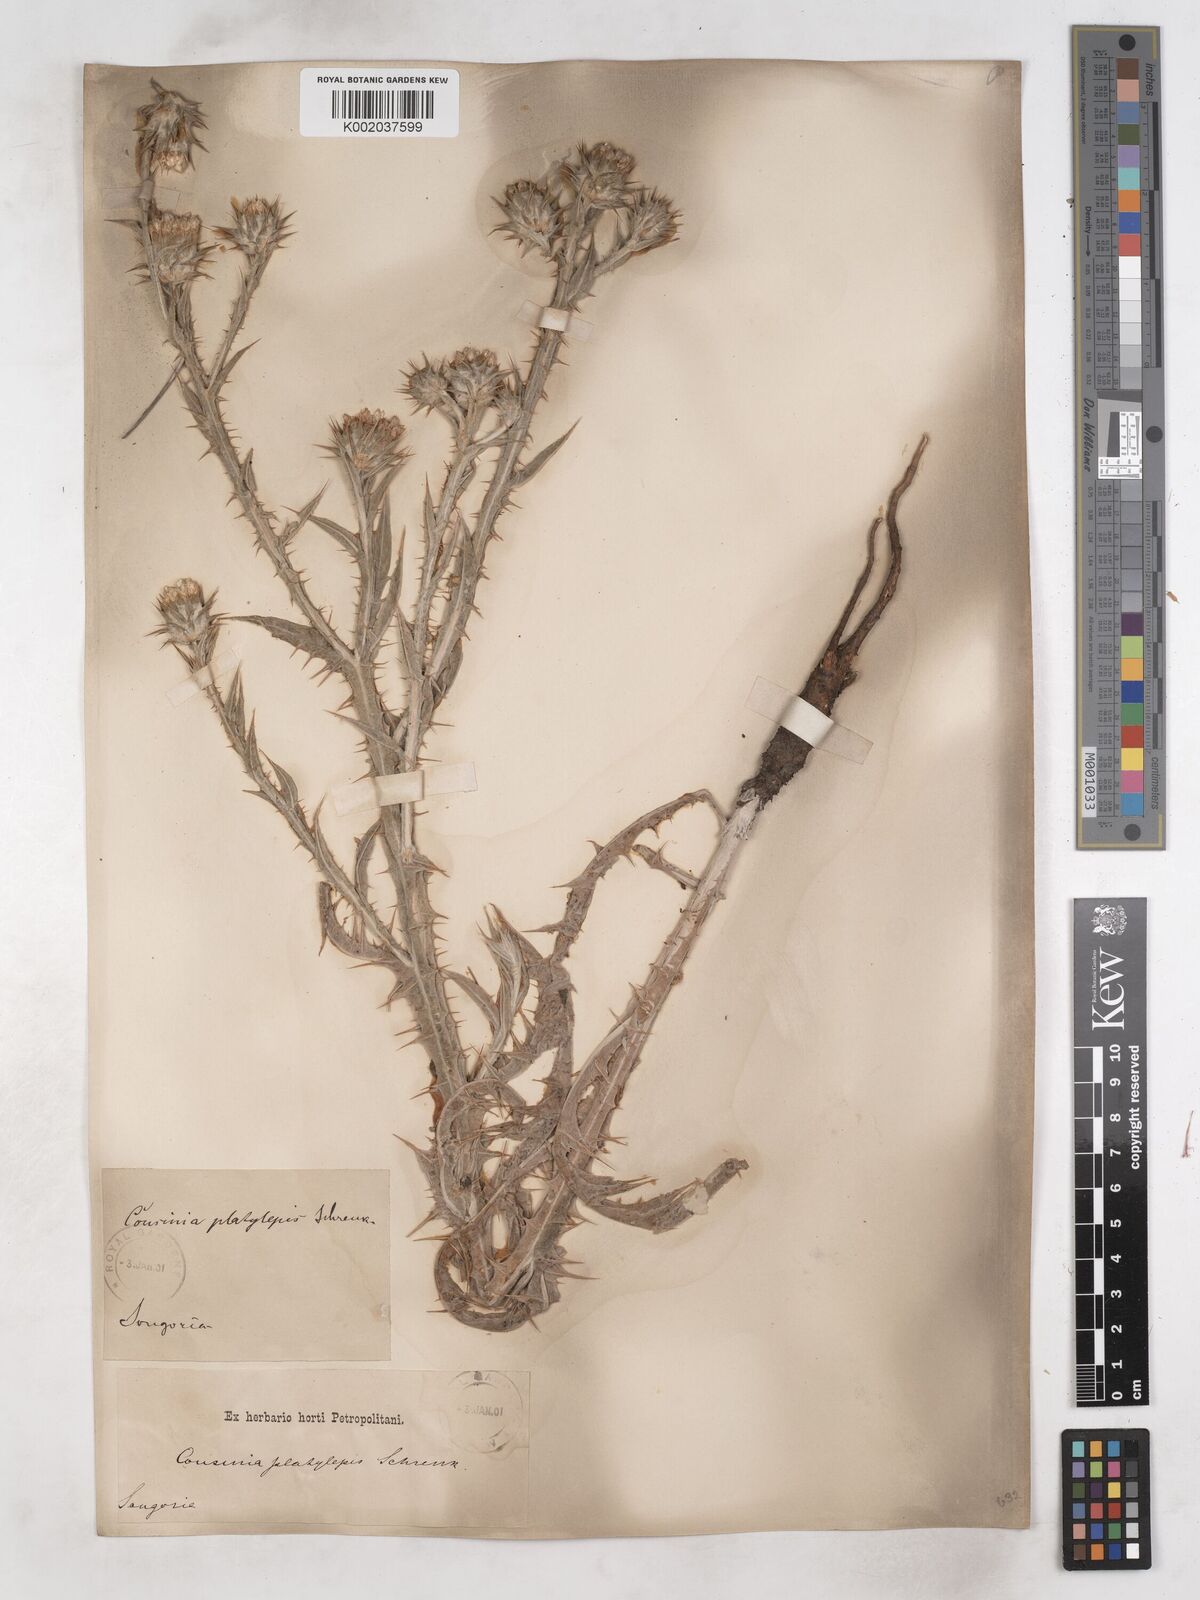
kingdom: Plantae
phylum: Tracheophyta
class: Magnoliopsida
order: Asterales
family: Asteraceae
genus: Cousinia
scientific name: Cousinia platylepis
